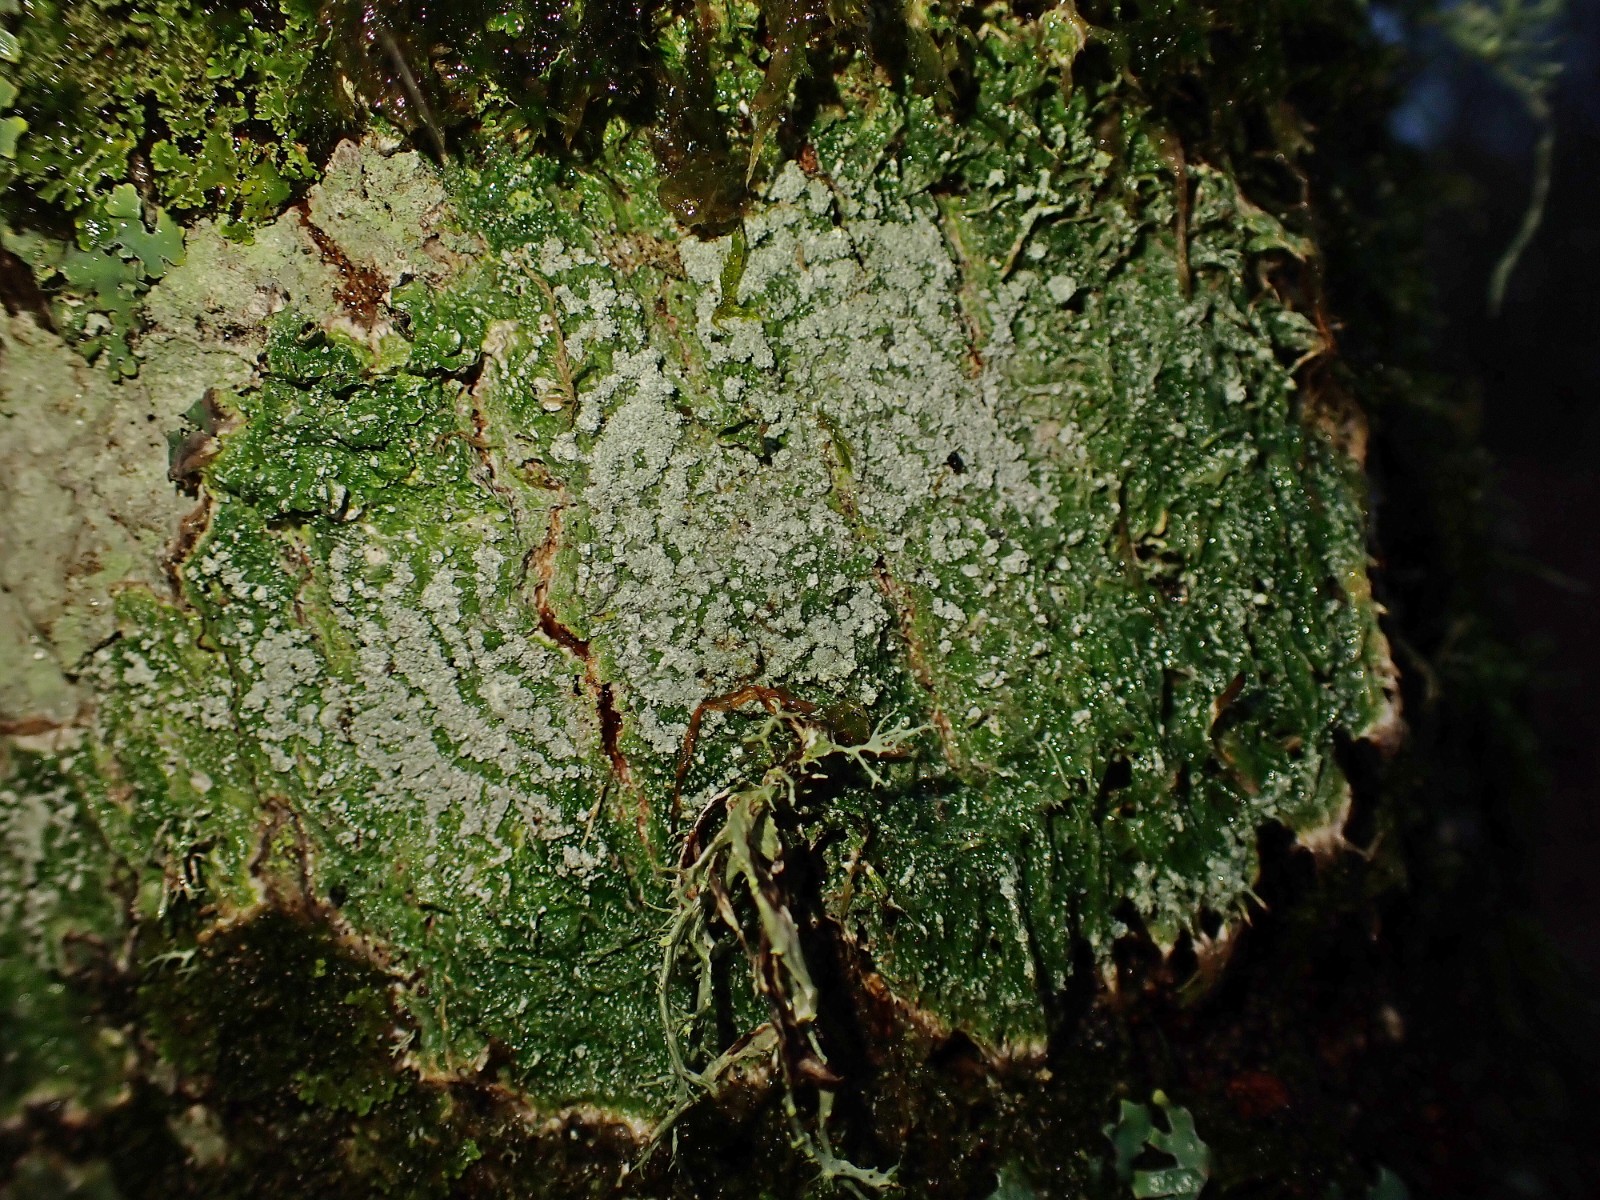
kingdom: Fungi
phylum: Ascomycota
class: Lecanoromycetes
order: Pertusariales
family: Pertusariaceae
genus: Lepra
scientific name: Lepra albescens
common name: hvidmelet prikvortelav
